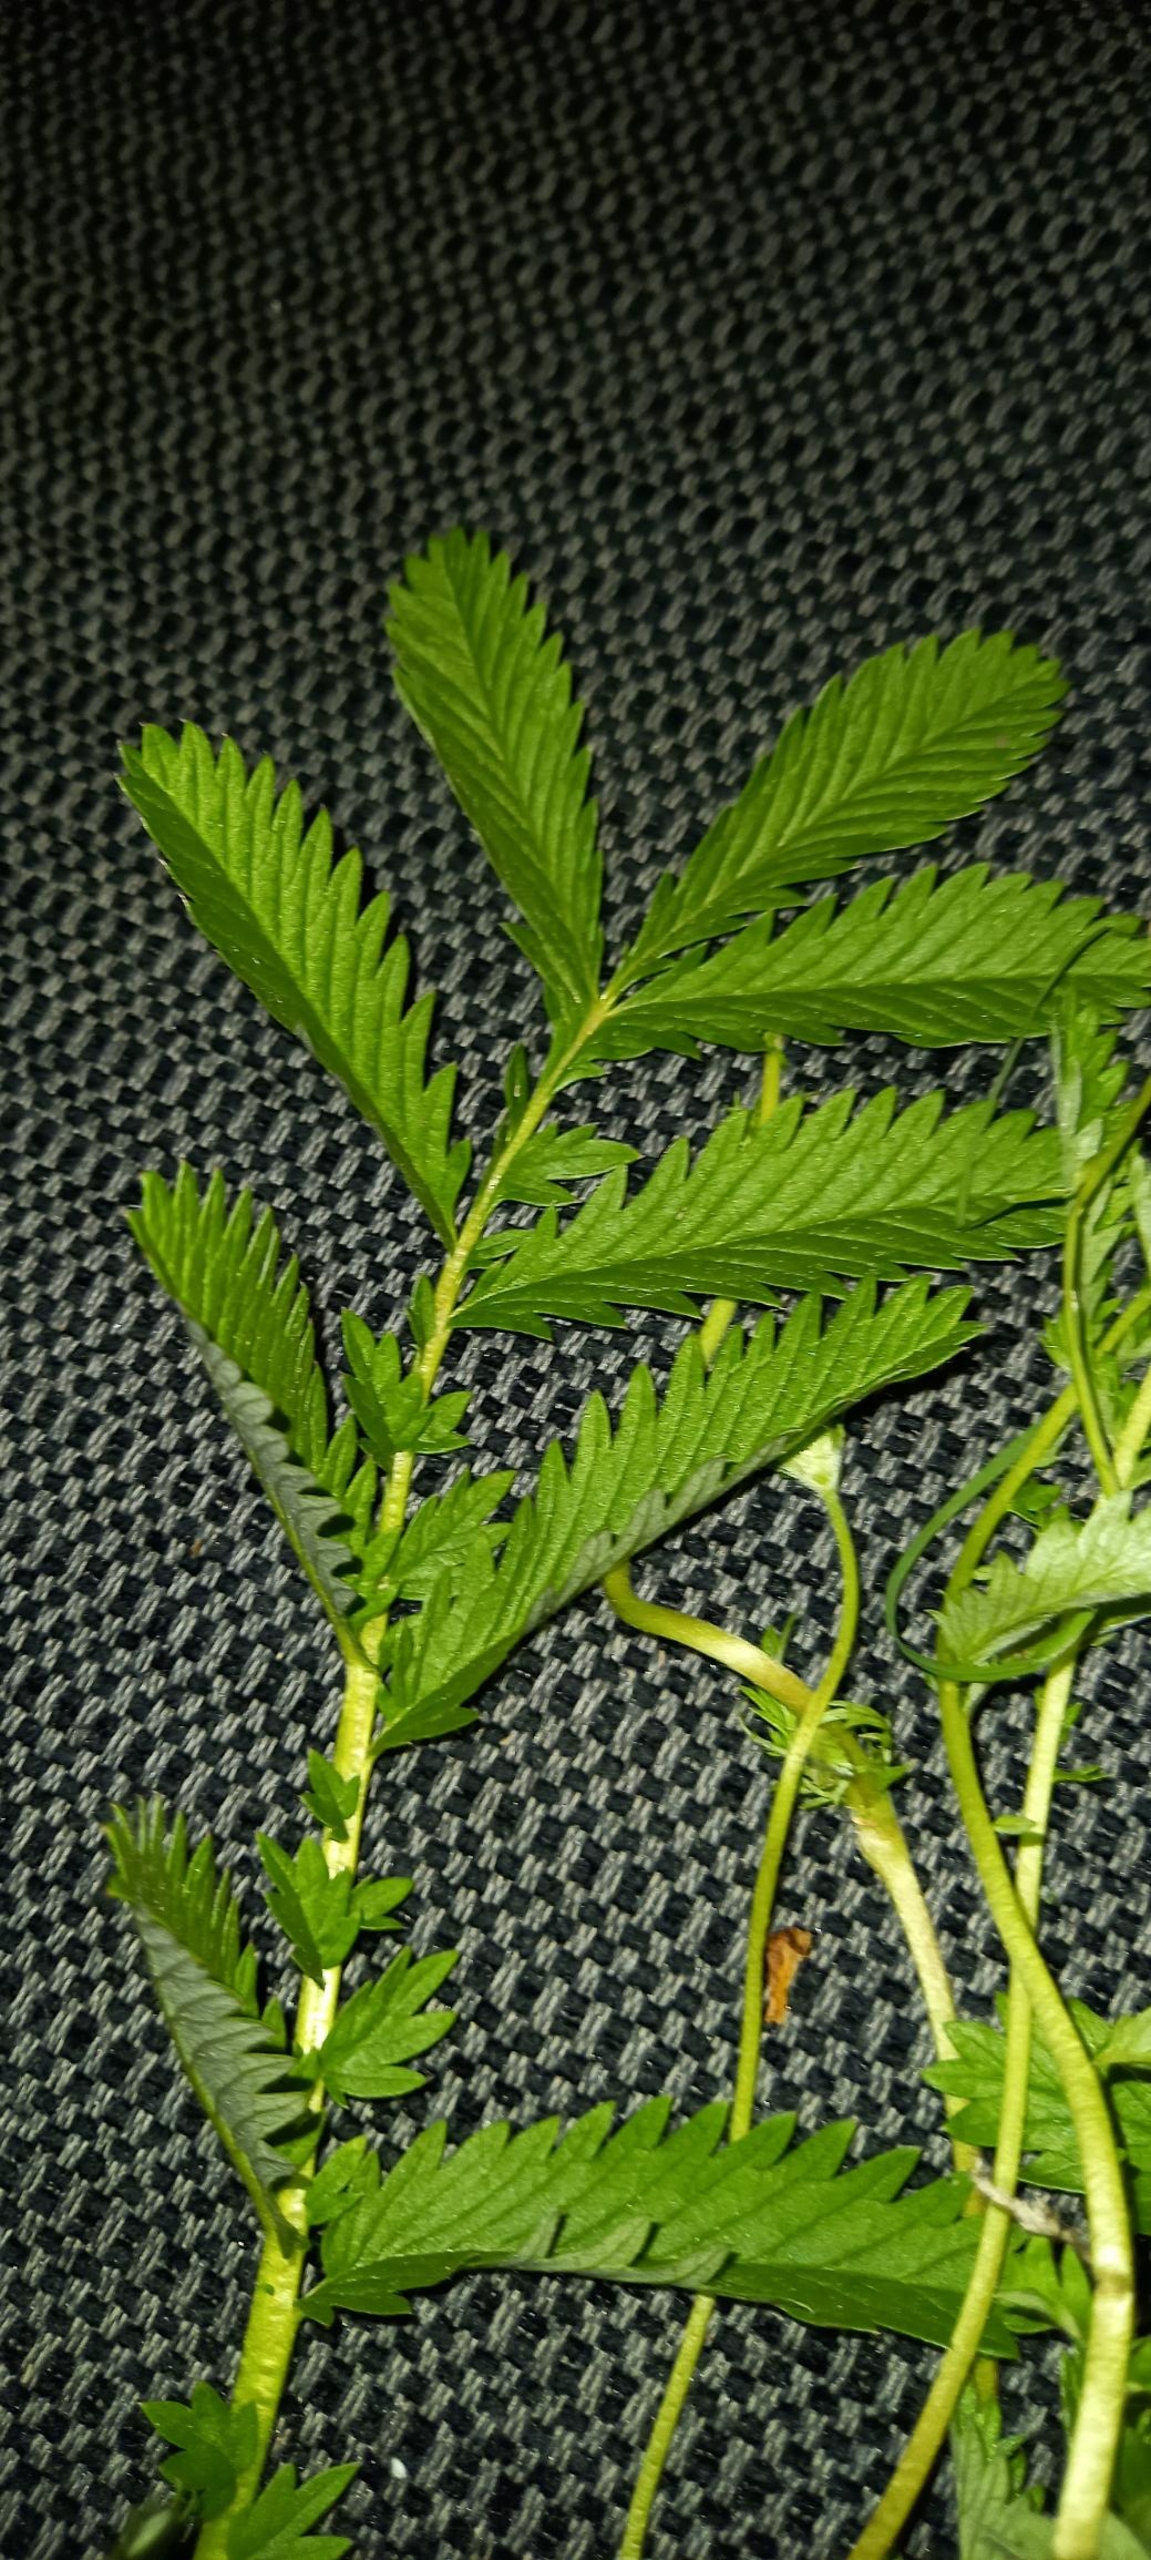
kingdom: Plantae
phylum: Tracheophyta
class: Magnoliopsida
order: Rosales
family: Rosaceae
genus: Argentina
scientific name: Argentina anserina
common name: Gåsepotentil
